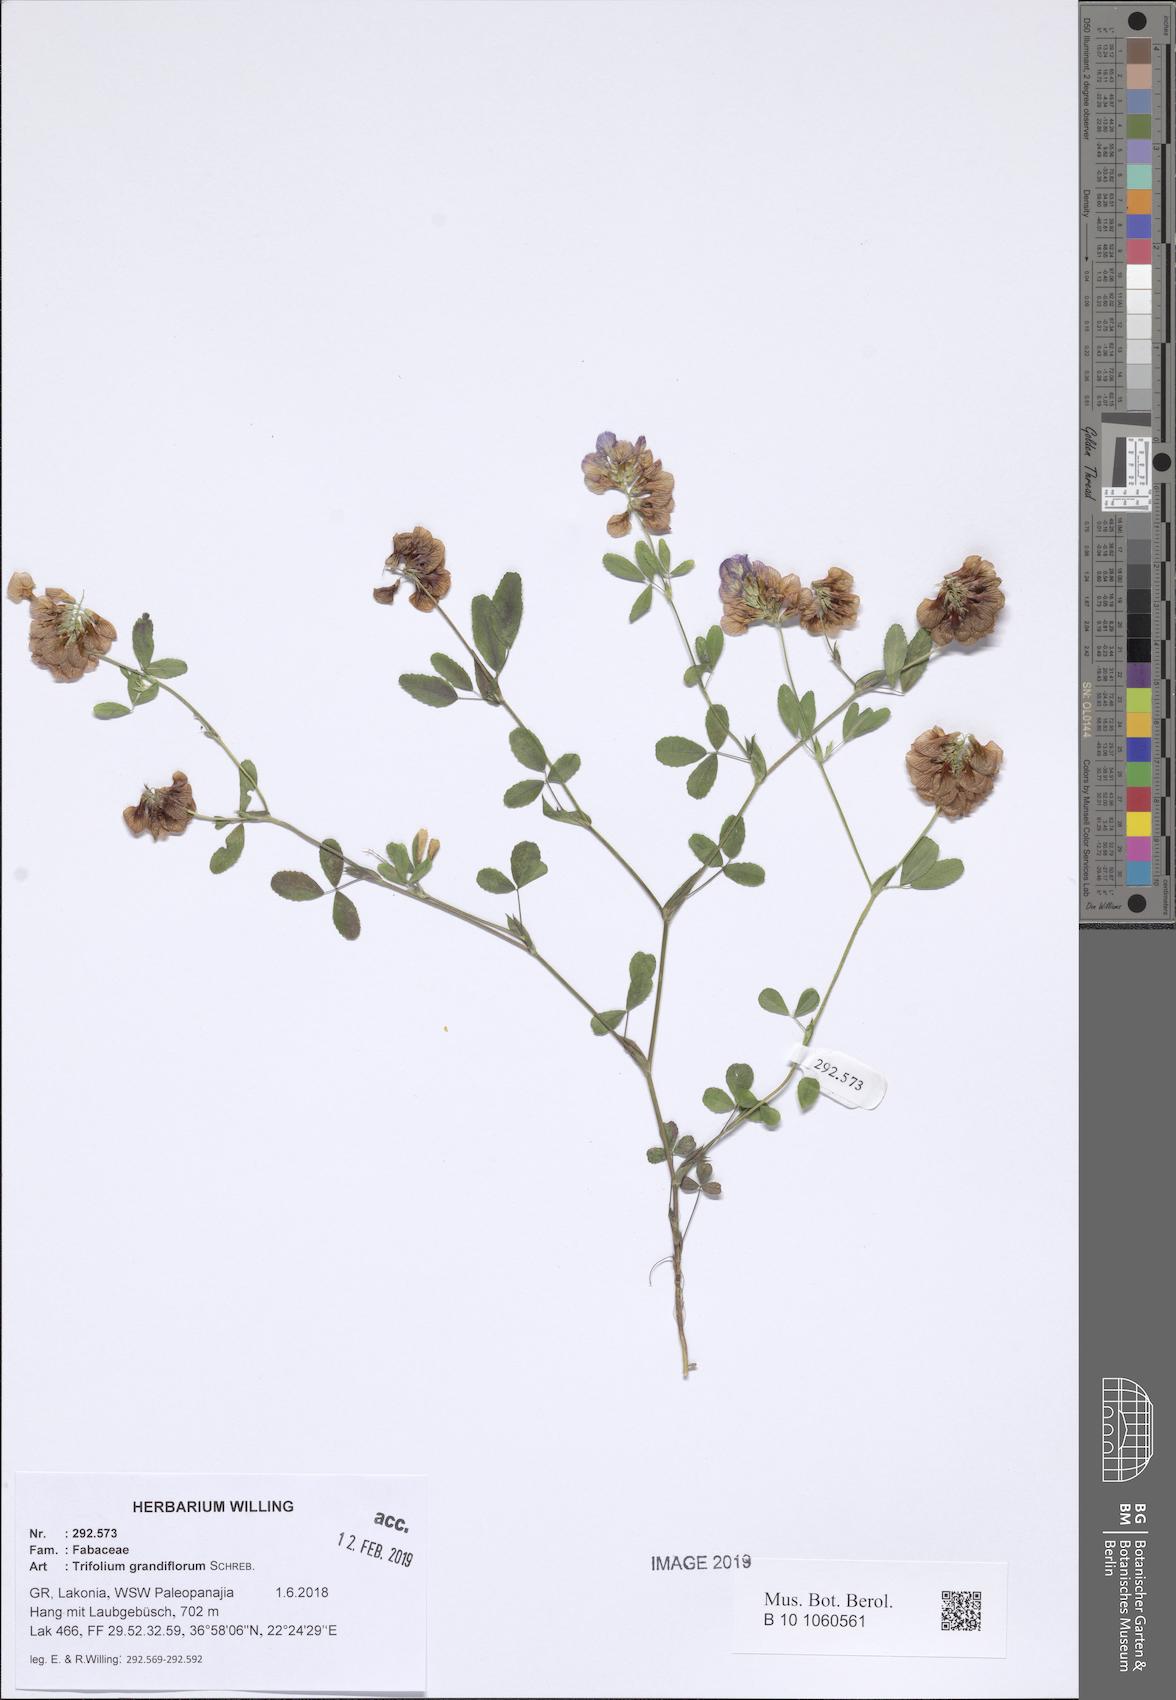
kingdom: Plantae
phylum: Tracheophyta
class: Magnoliopsida
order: Fabales
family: Fabaceae
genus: Trifolium
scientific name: Trifolium grandiflorum
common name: Large-flower hop clover
